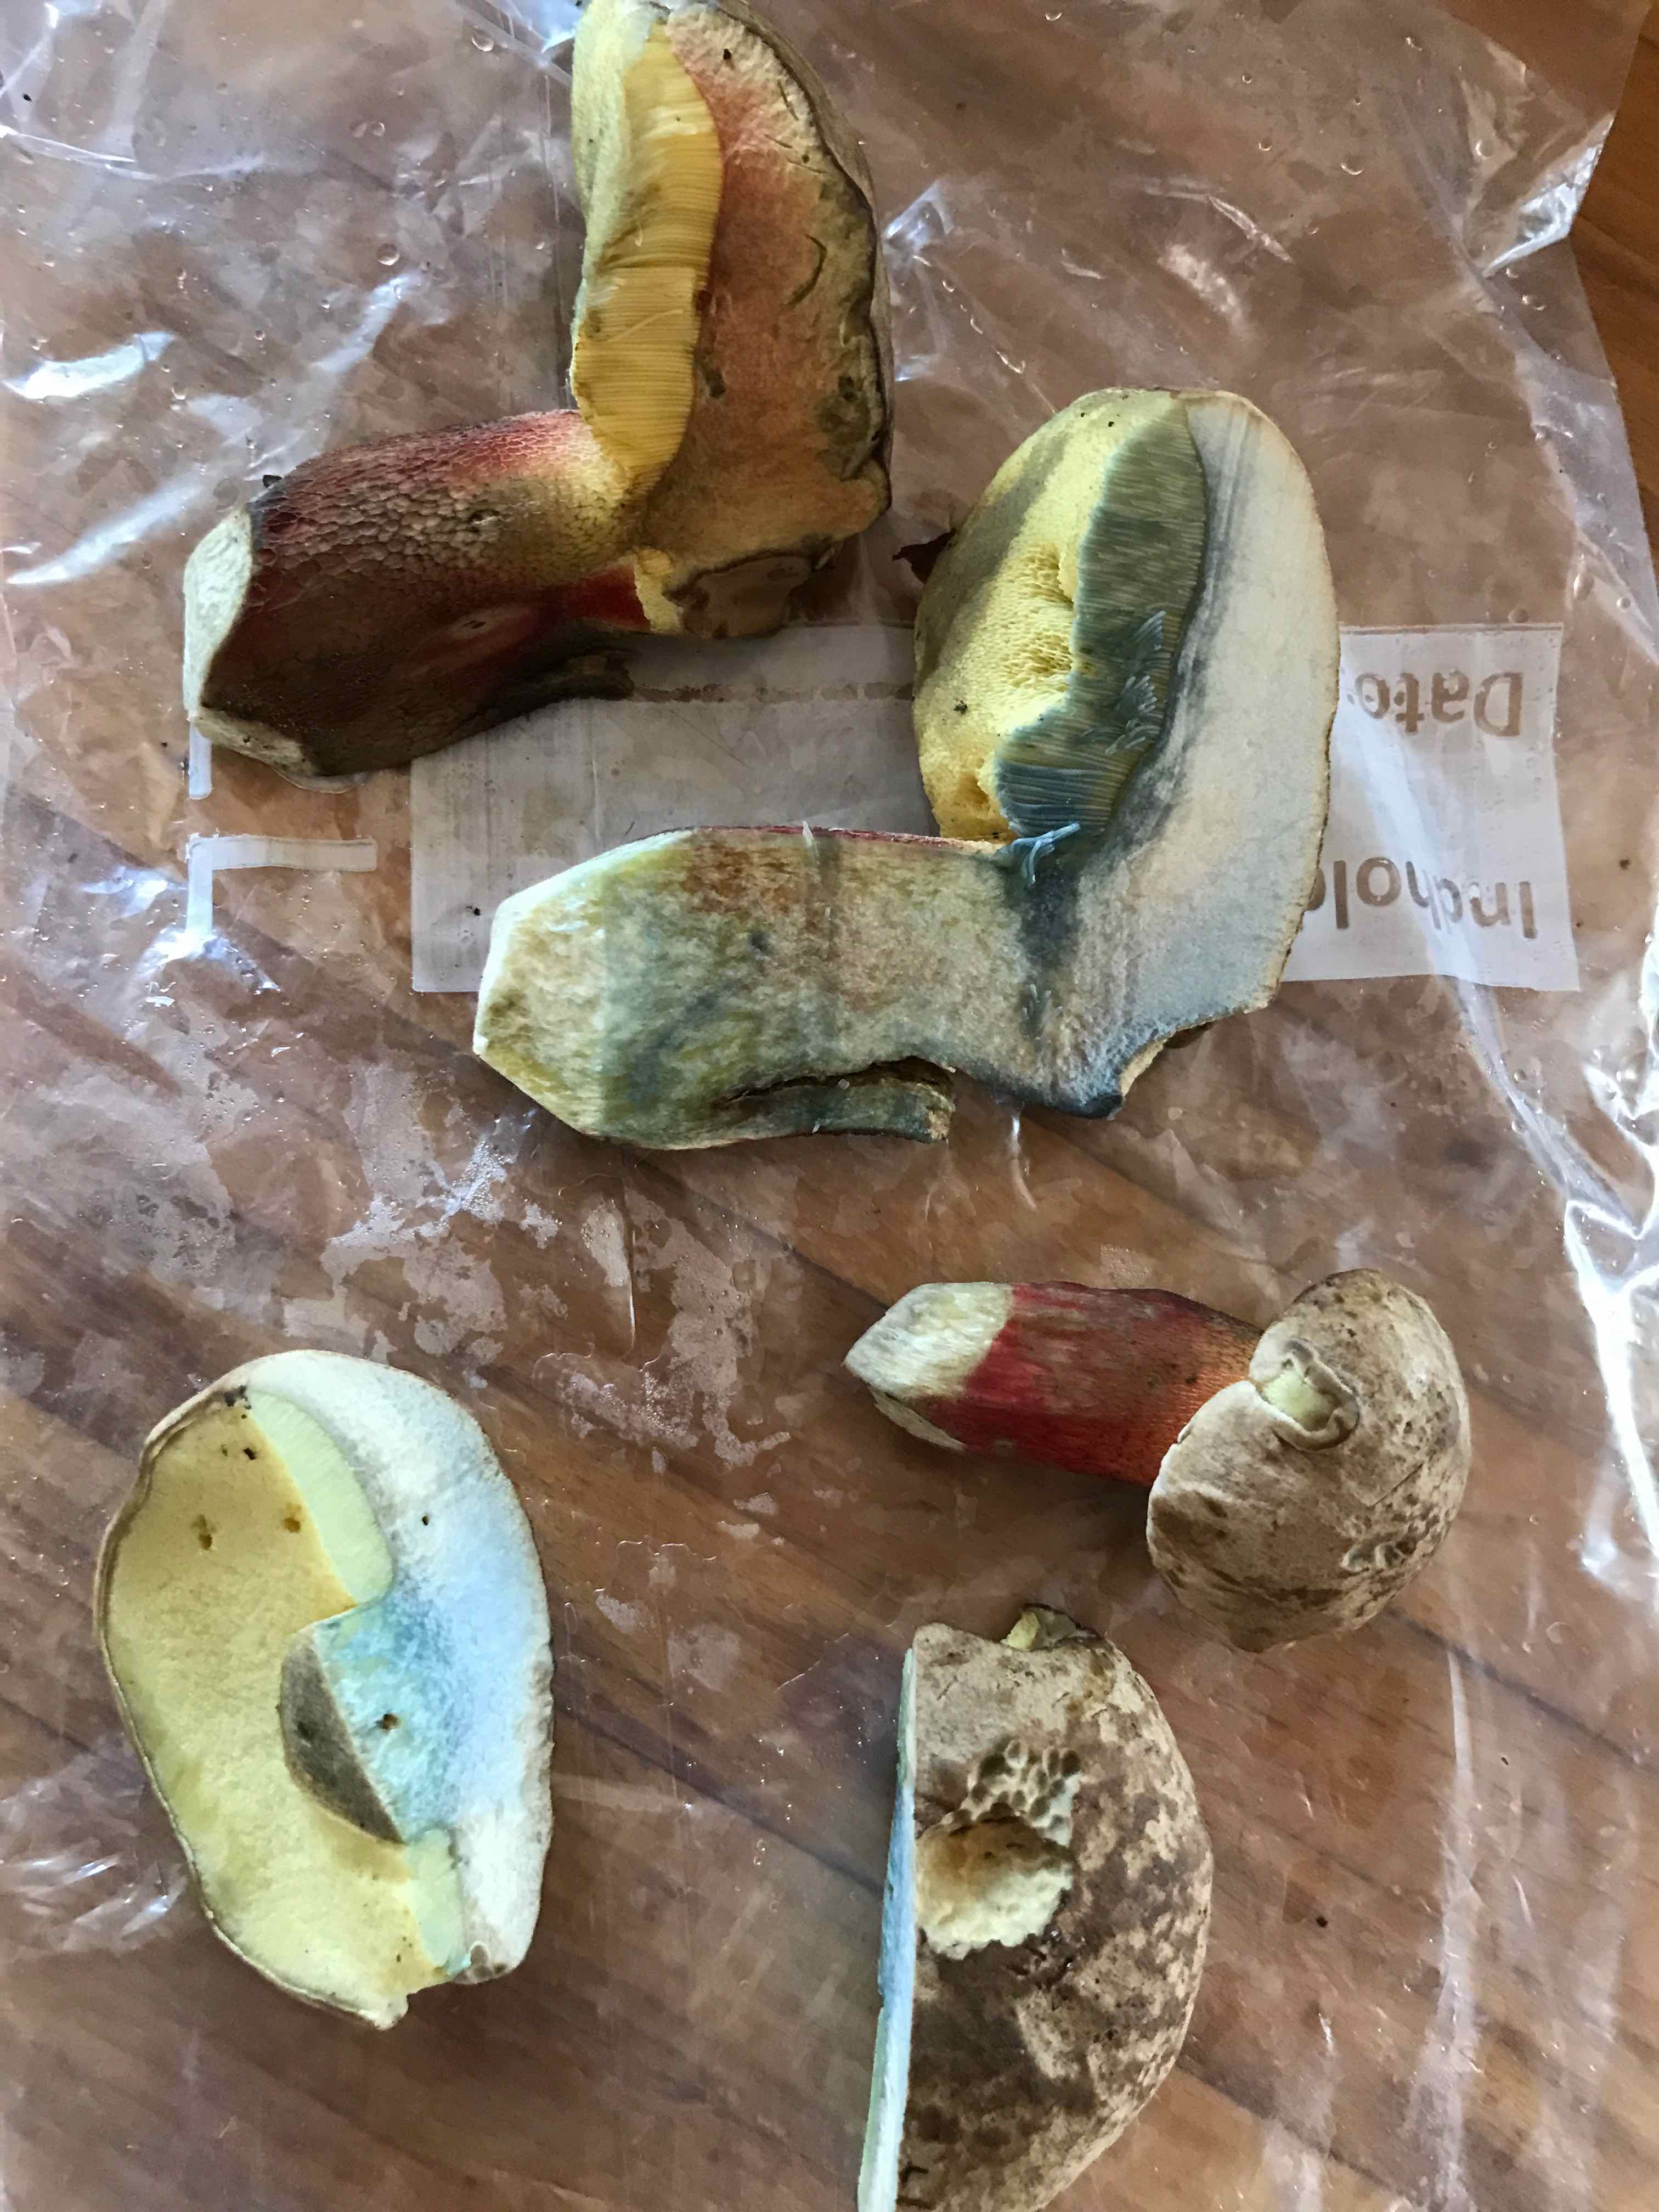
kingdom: Fungi
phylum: Basidiomycota
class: Agaricomycetes
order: Boletales
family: Boletaceae
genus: Caloboletus
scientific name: Caloboletus calopus
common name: skønfodet rørhat
